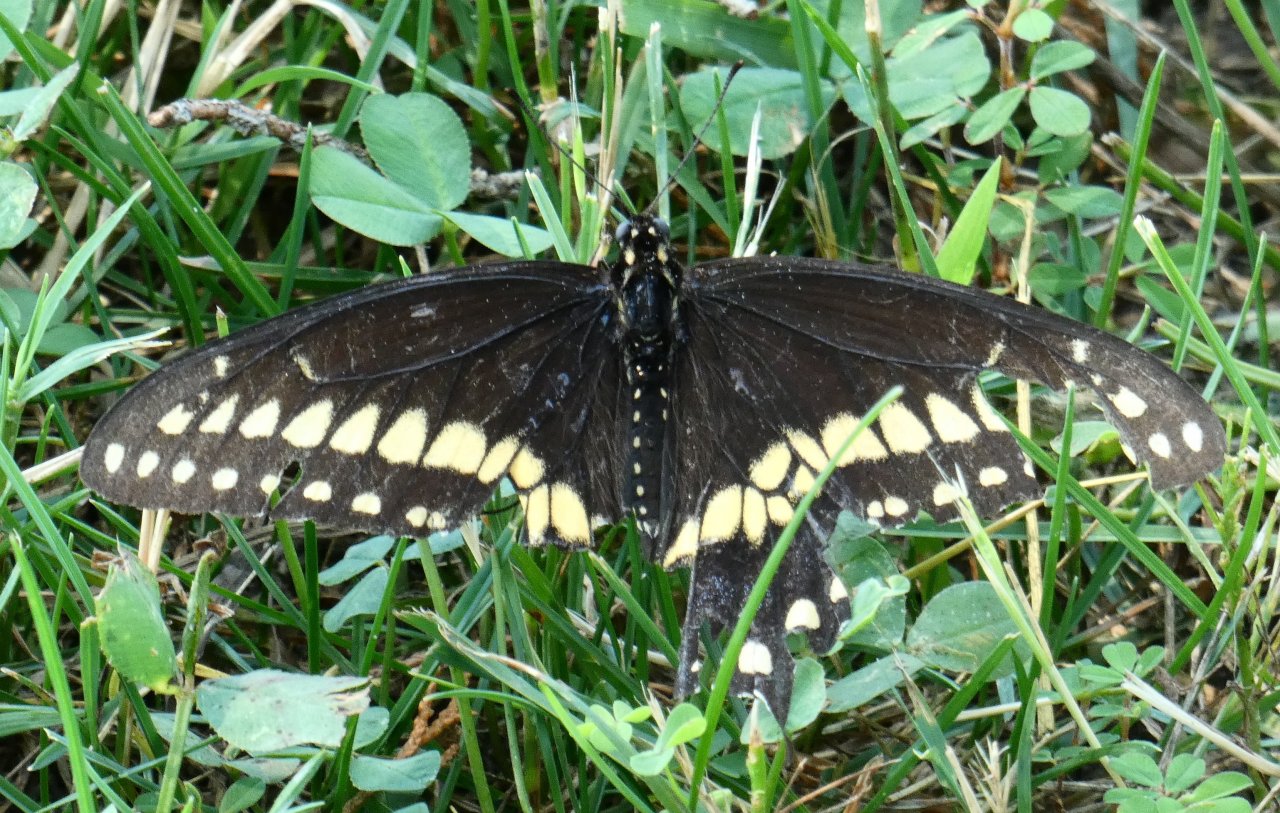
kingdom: Animalia
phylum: Arthropoda
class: Insecta
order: Lepidoptera
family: Papilionidae
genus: Papilio
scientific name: Papilio polyxenes
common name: Black Swallowtail
